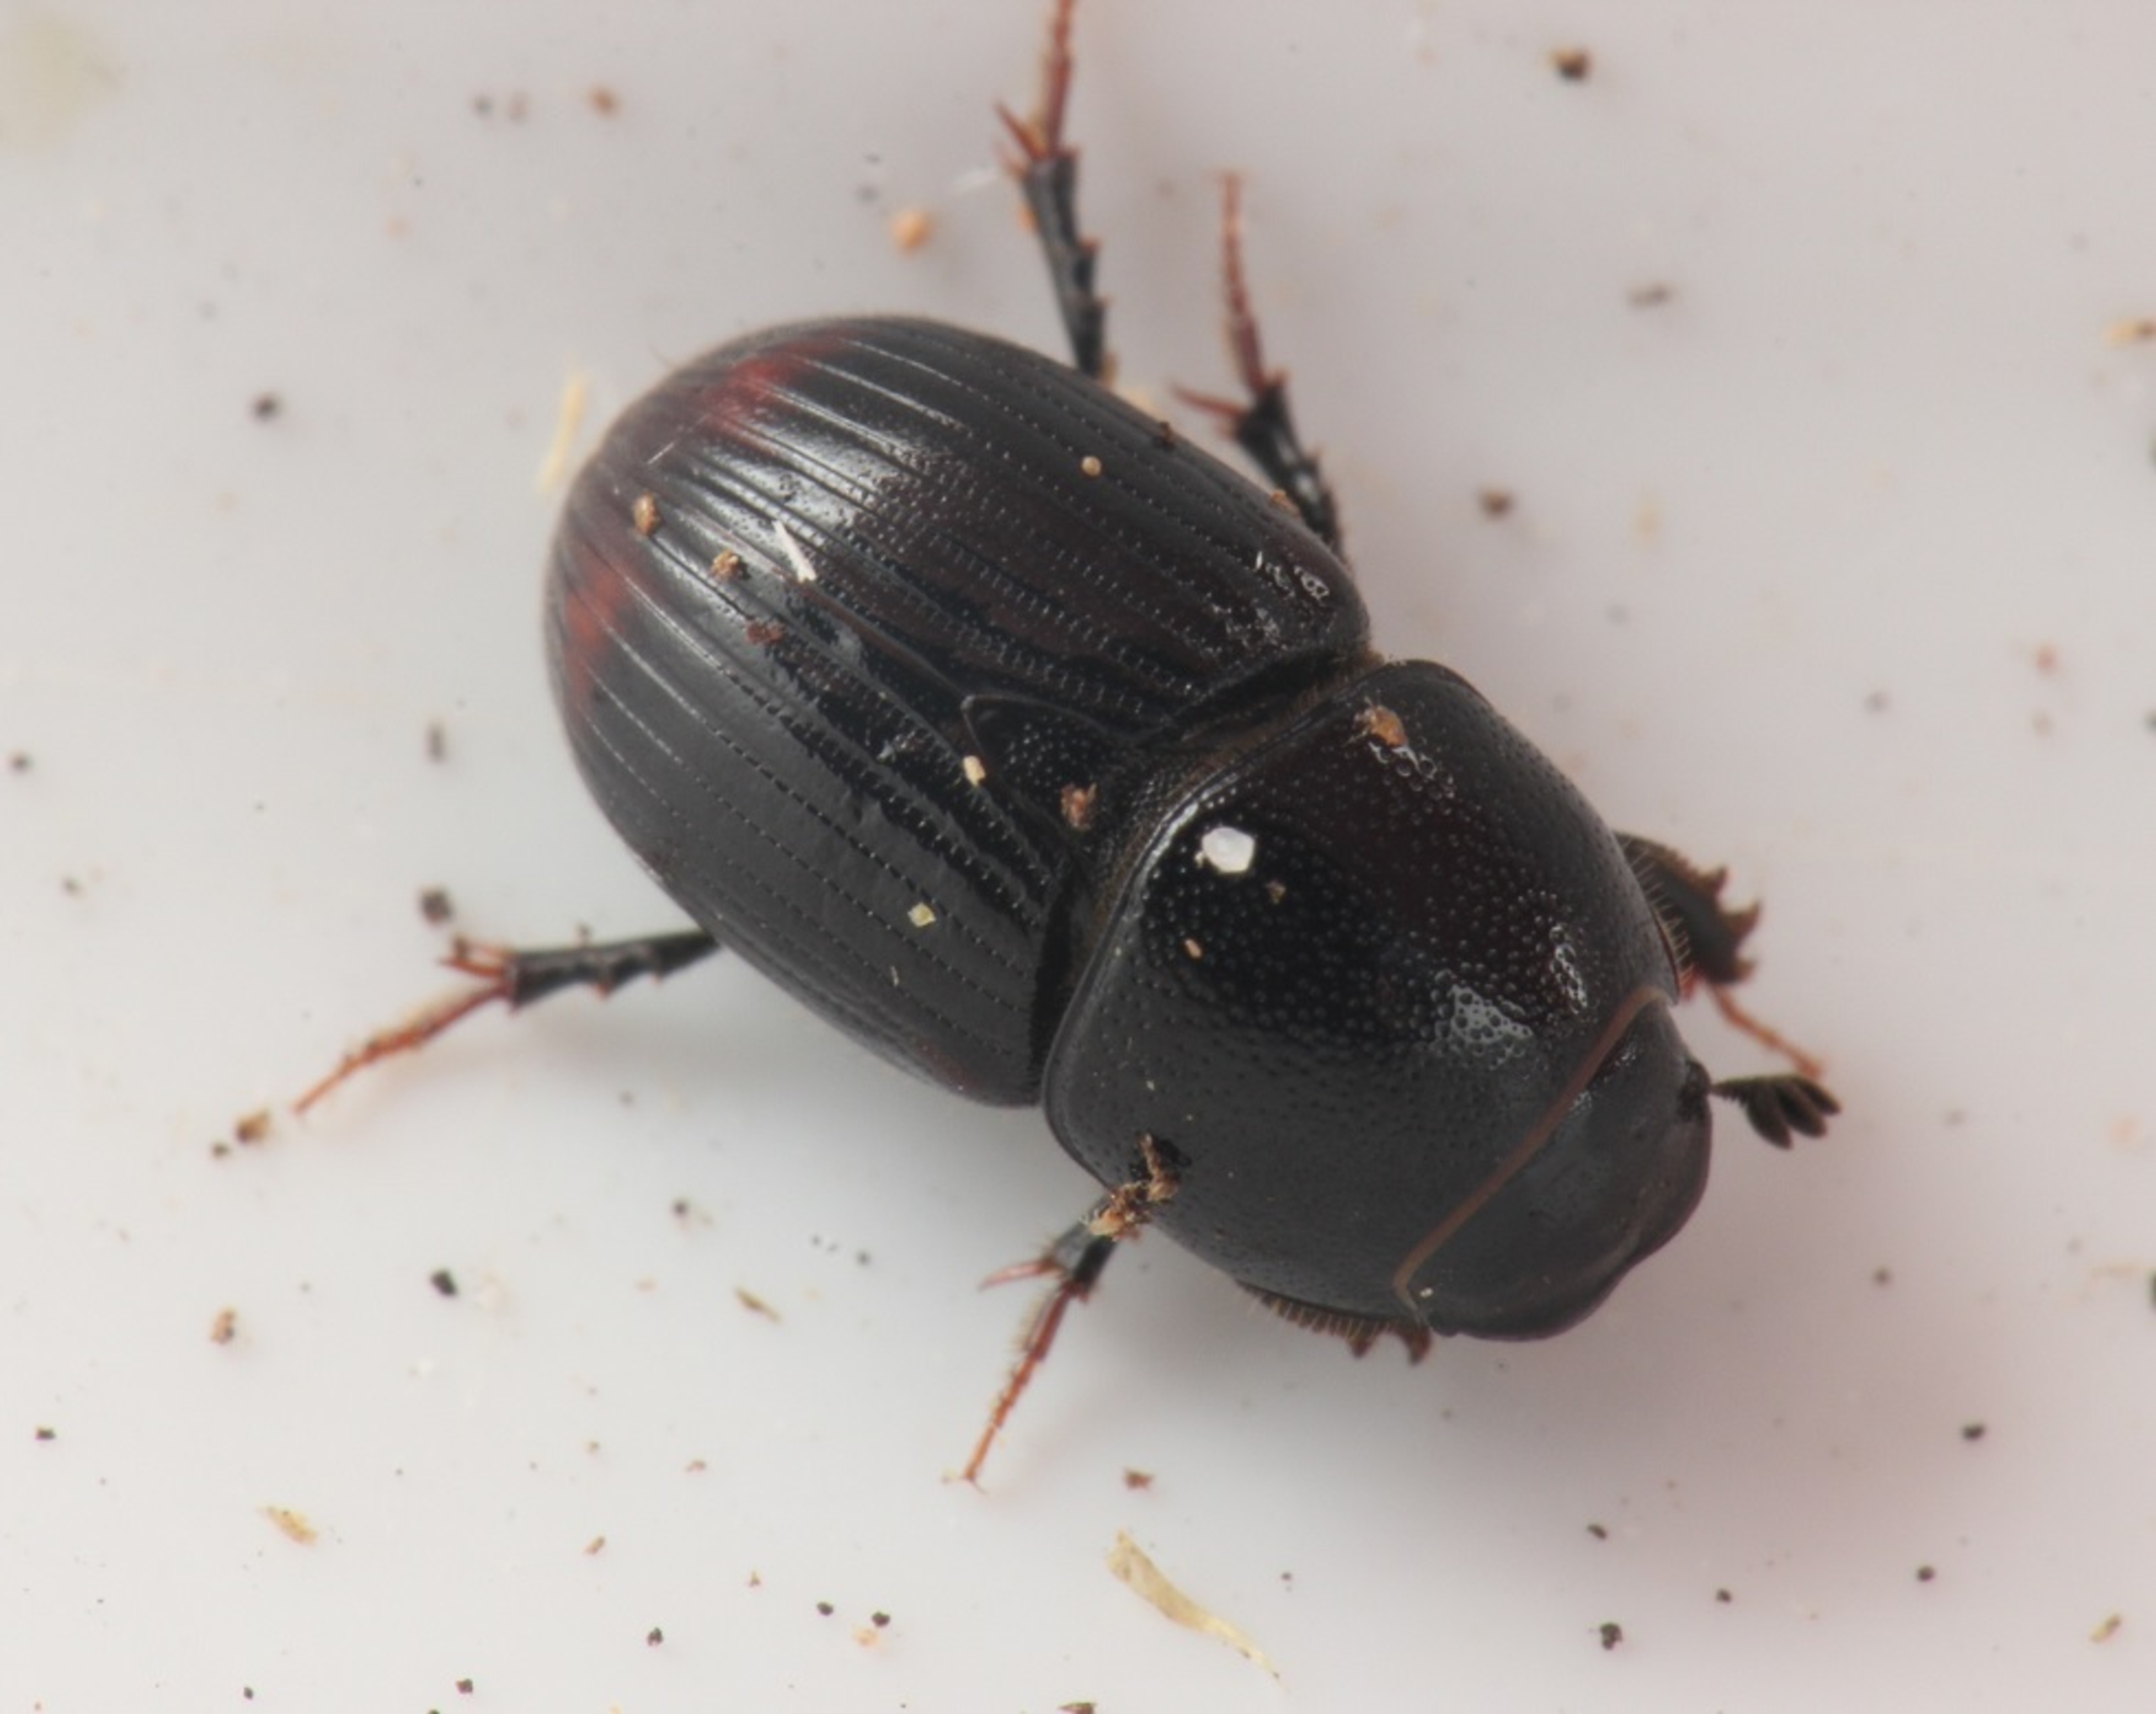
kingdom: Animalia
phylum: Arthropoda
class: Insecta
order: Coleoptera
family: Scarabaeidae
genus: Otophorus
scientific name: Otophorus haemorrhoidalis
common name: Rødhalet møgbille
